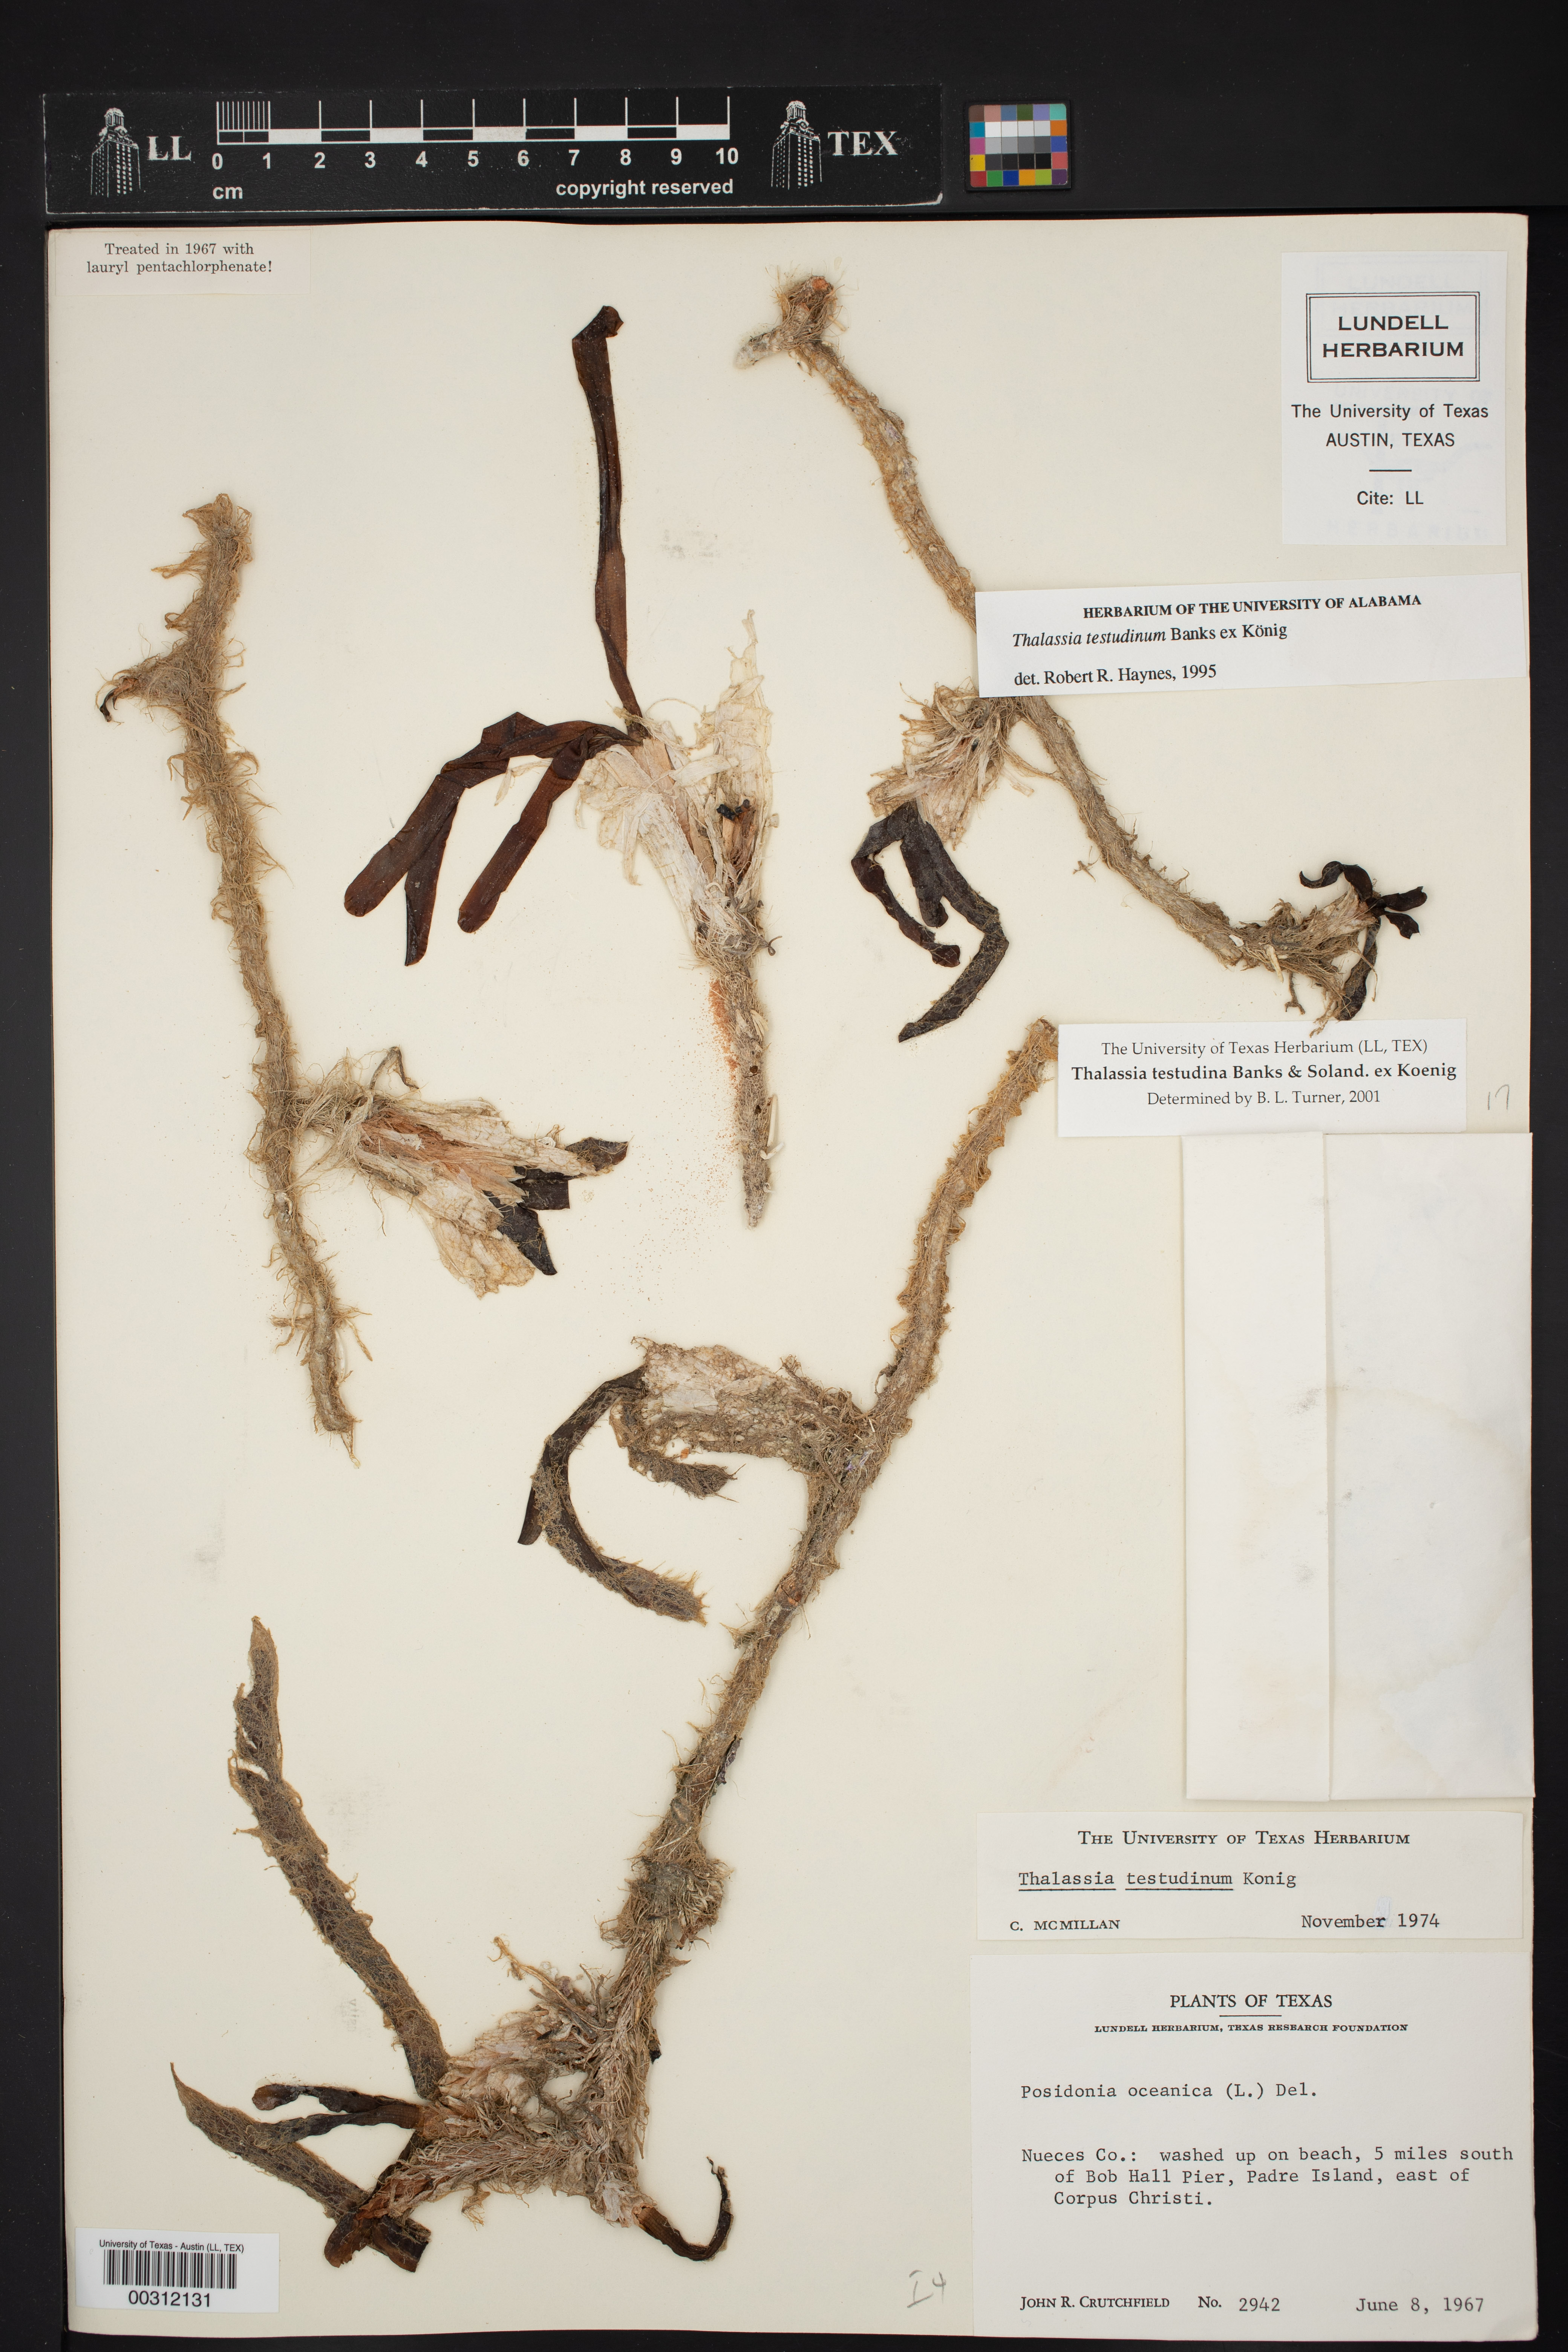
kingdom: Plantae
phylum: Tracheophyta
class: Liliopsida
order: Alismatales
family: Hydrocharitaceae
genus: Thalassia
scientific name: Thalassia testudinum
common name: Species code: tt
